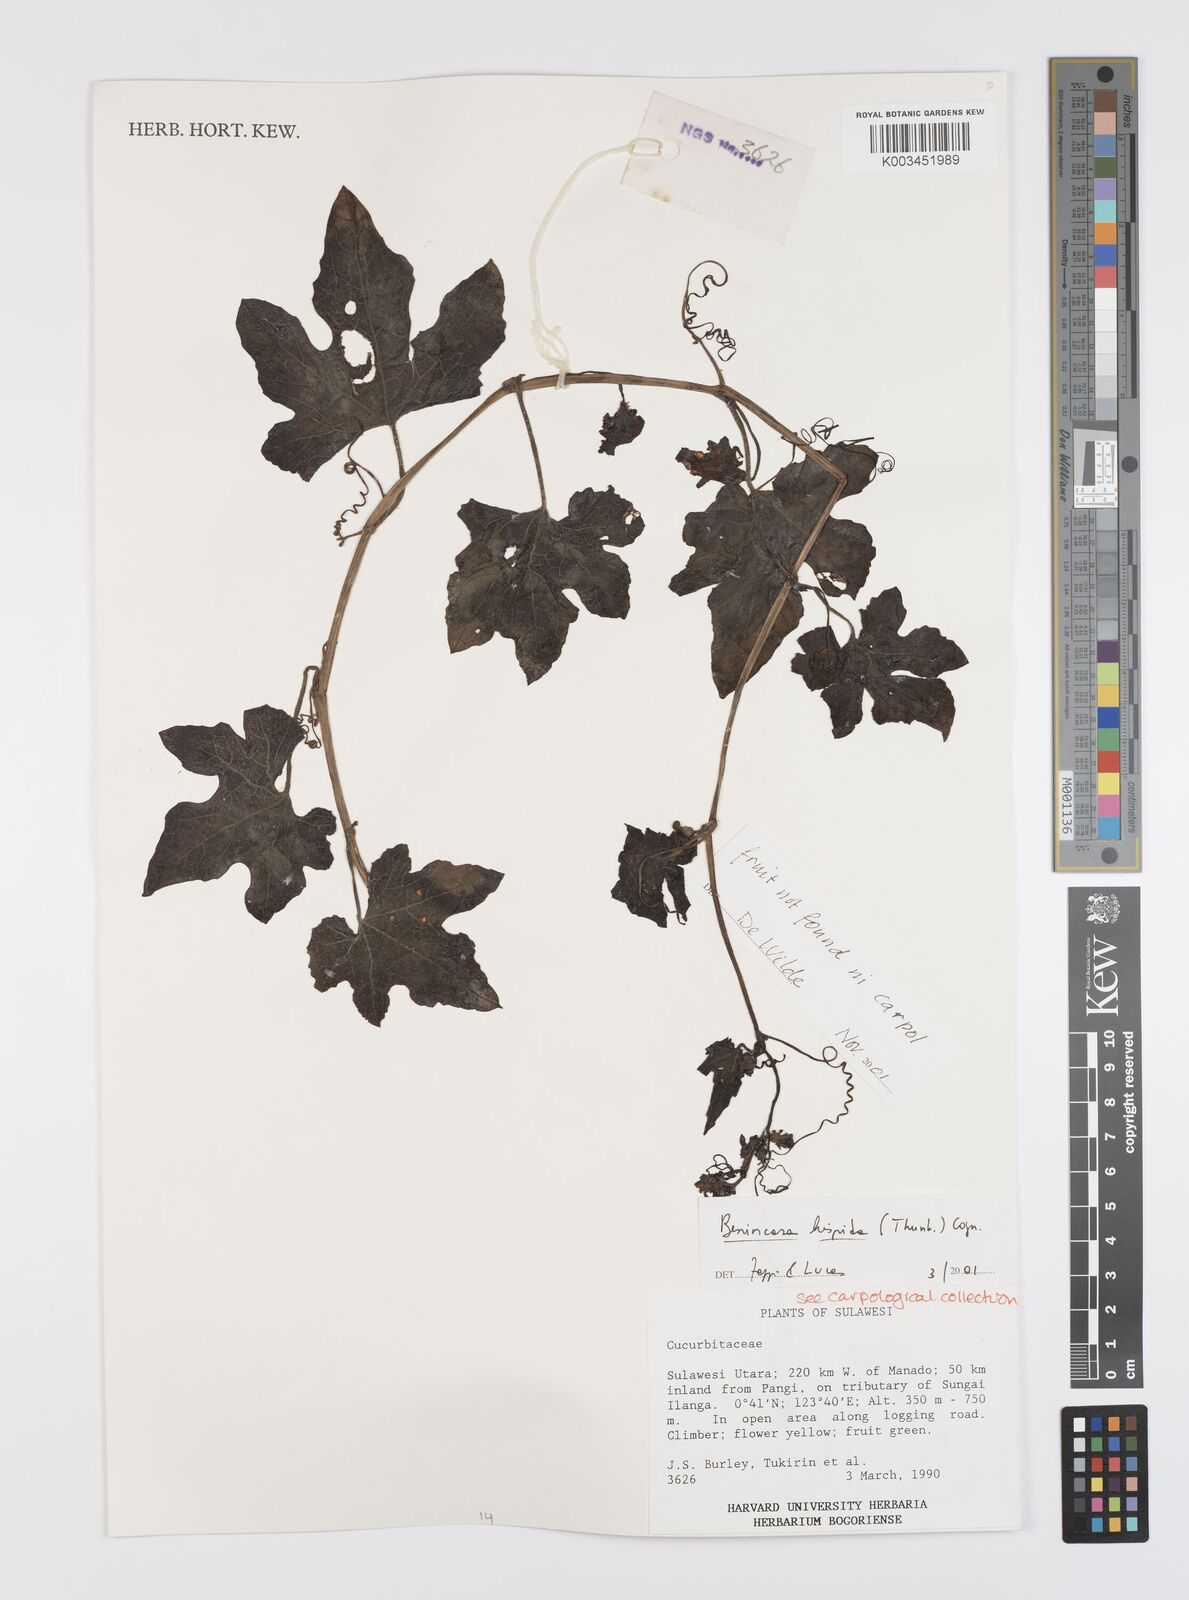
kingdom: Plantae
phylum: Tracheophyta
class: Magnoliopsida
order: Cucurbitales
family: Cucurbitaceae
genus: Benincasa
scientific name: Benincasa hispida
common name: Chinese-watermelon
